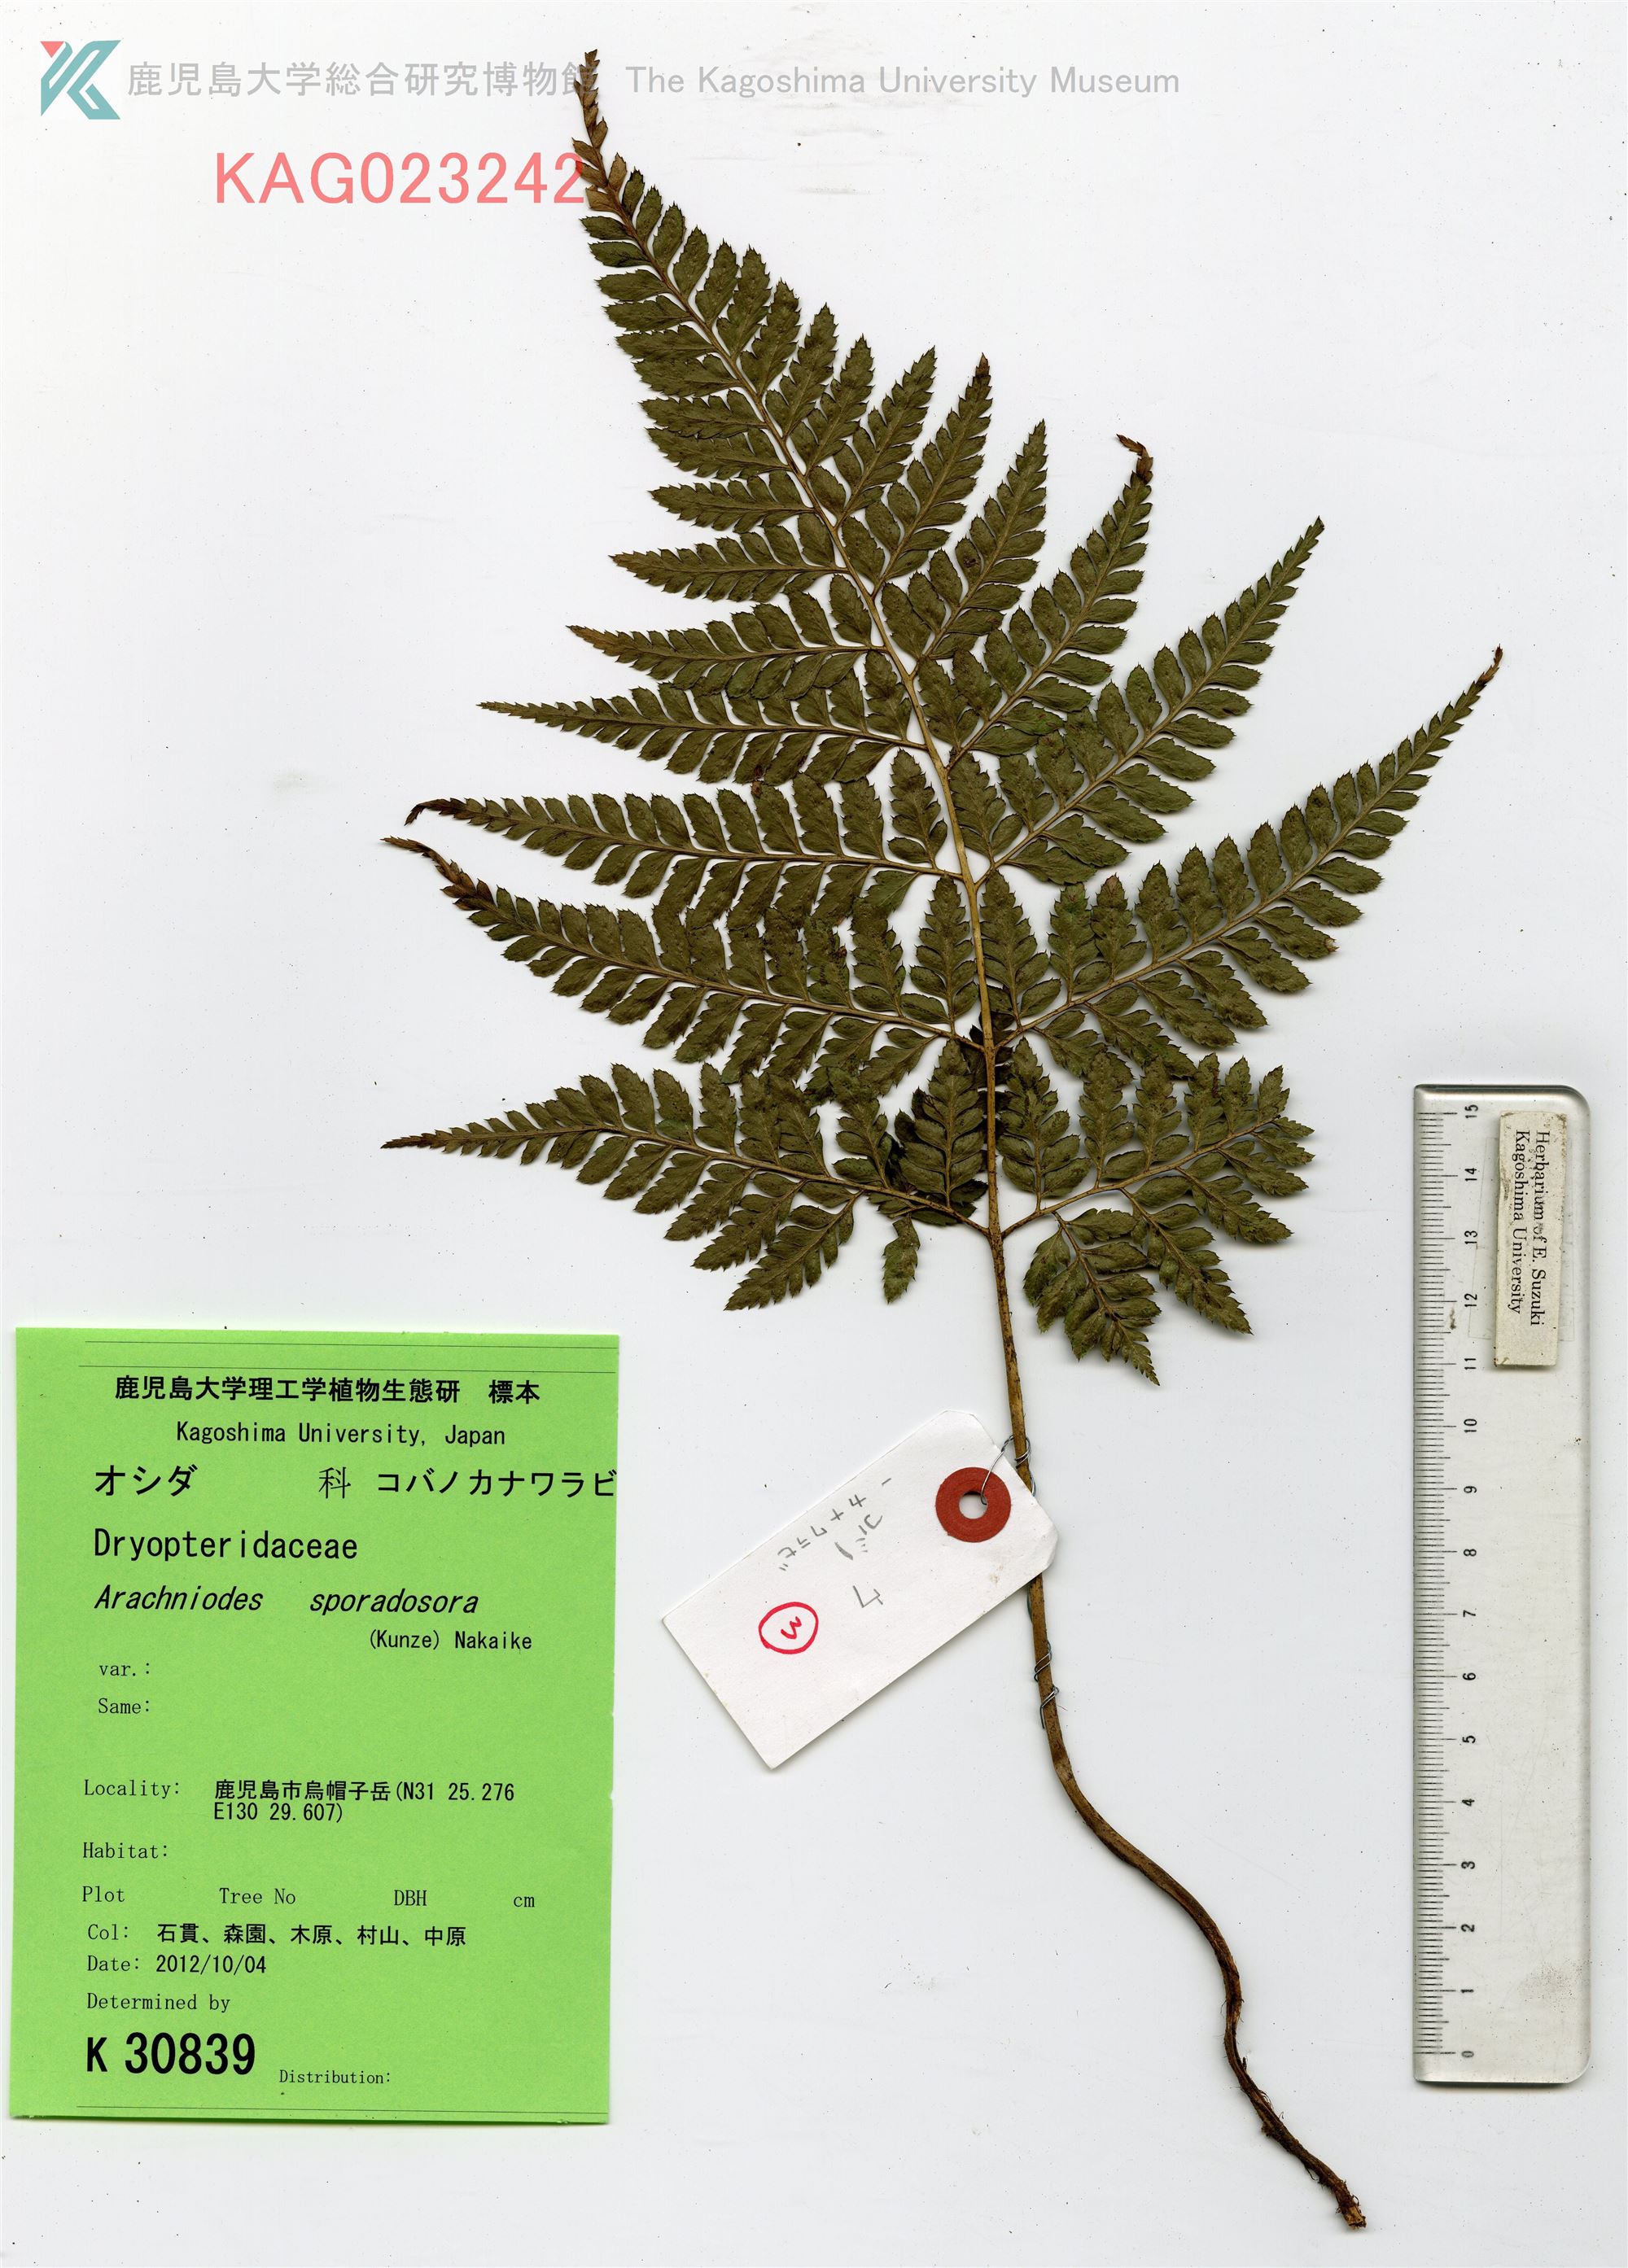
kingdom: Plantae
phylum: Tracheophyta
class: Polypodiopsida
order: Polypodiales
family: Dryopteridaceae
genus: Arachniodes
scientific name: Arachniodes cornu-cervi
